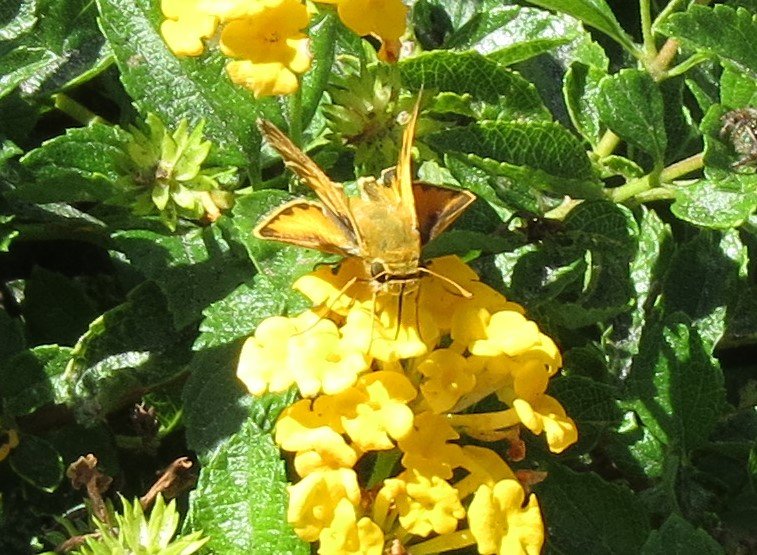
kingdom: Animalia
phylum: Arthropoda
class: Insecta
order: Lepidoptera
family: Hesperiidae
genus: Hylephila
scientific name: Hylephila phyleus
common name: Fiery Skipper
